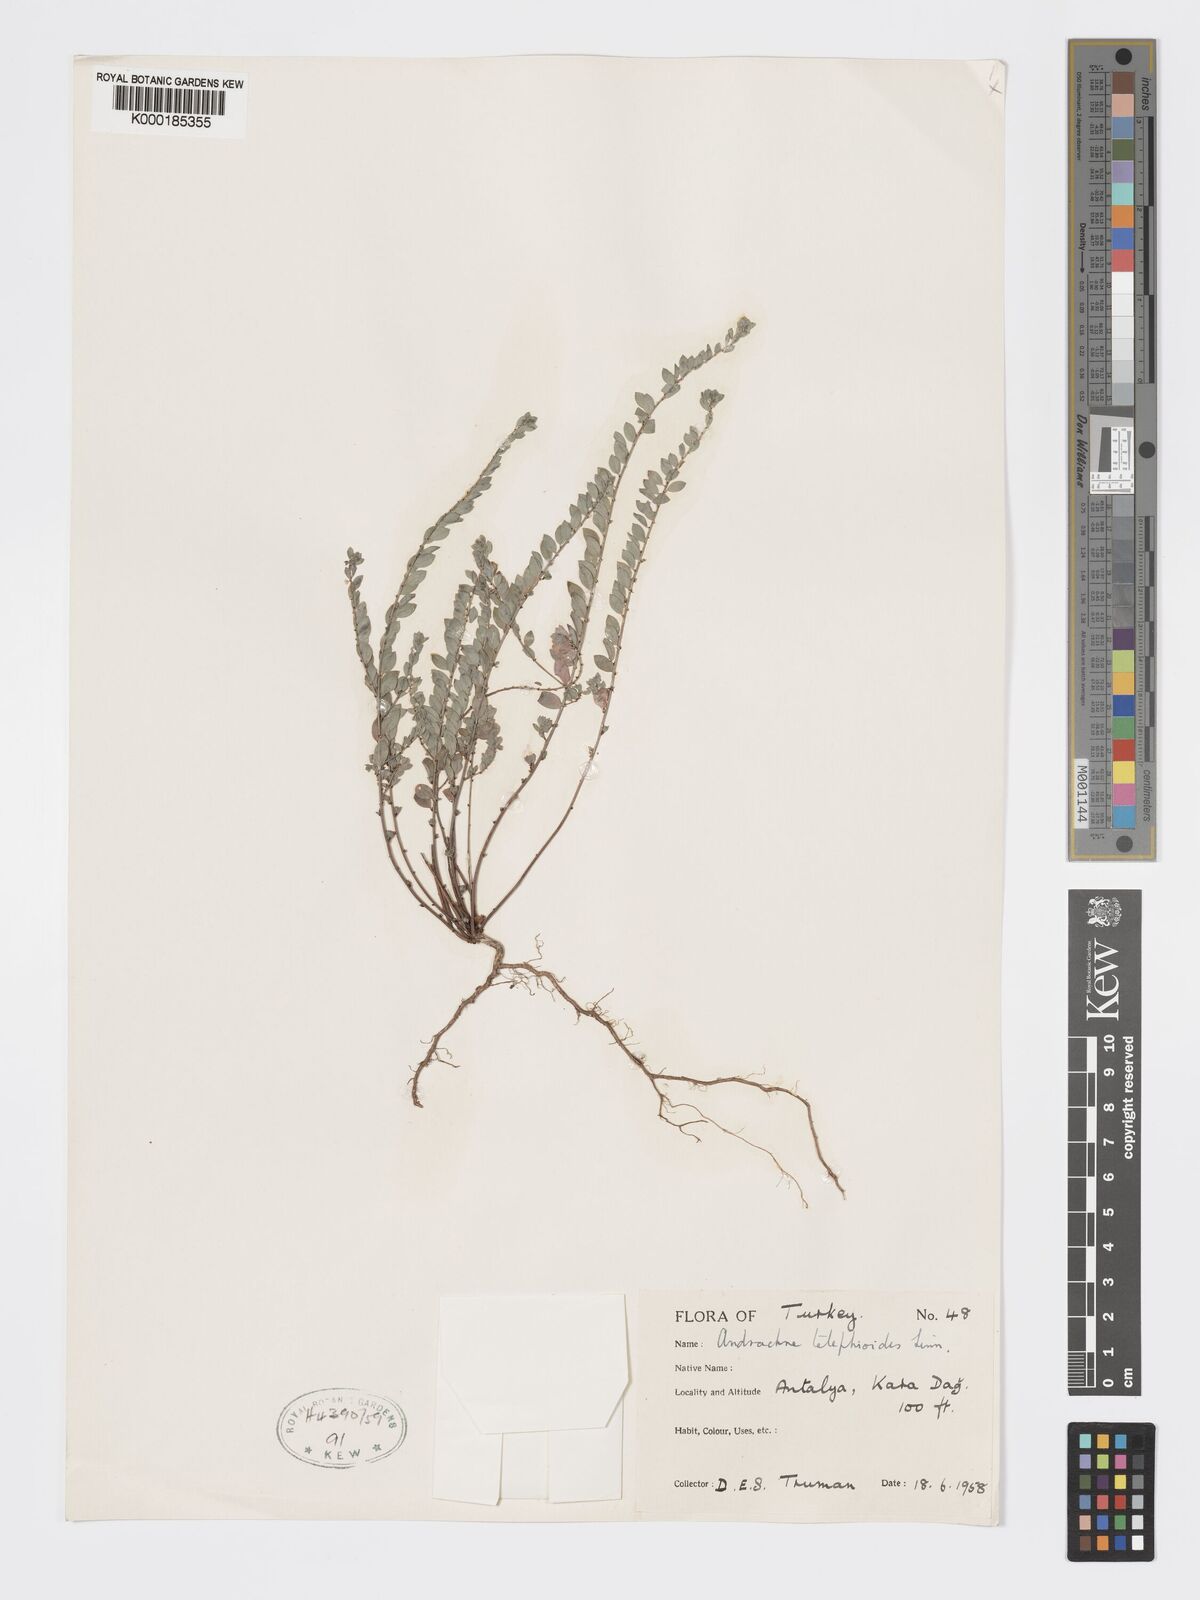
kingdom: Plantae
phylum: Tracheophyta
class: Magnoliopsida
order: Malpighiales
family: Phyllanthaceae
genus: Andrachne
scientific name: Andrachne telephioides
